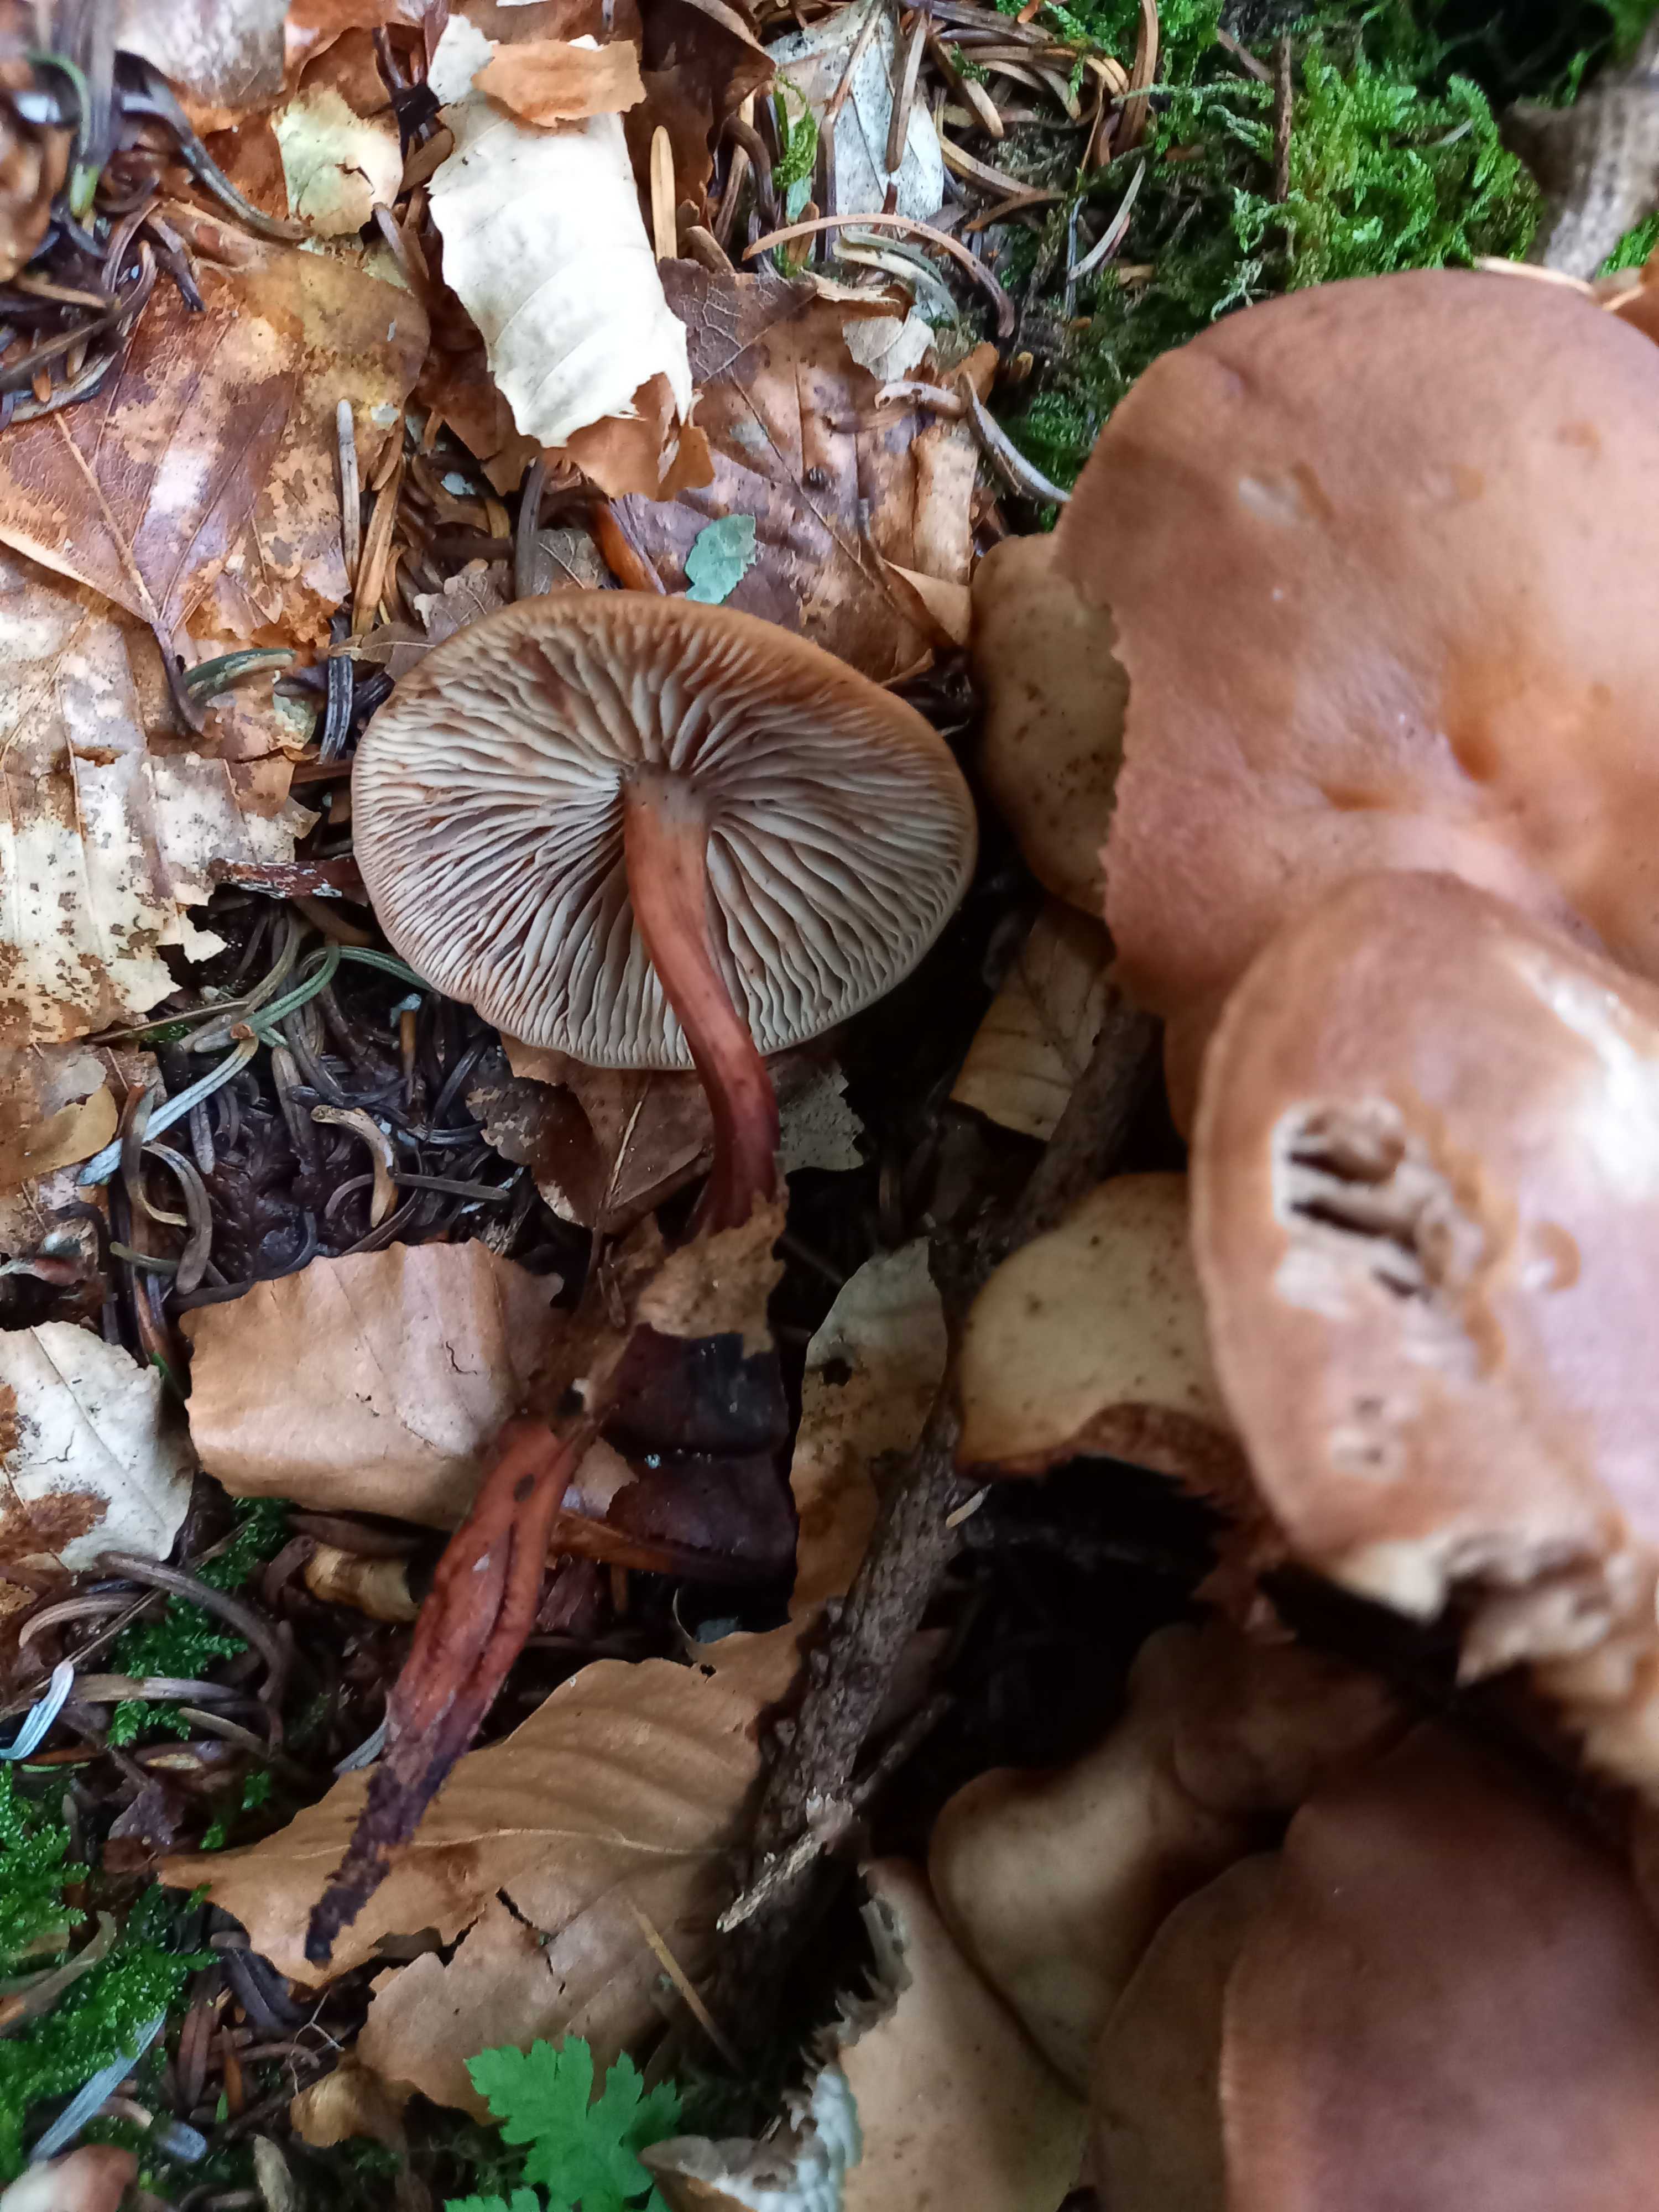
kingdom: Fungi
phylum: Basidiomycota
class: Agaricomycetes
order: Agaricales
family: Omphalotaceae
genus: Gymnopus
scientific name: Gymnopus fusipes
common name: tenstokket fladhat
